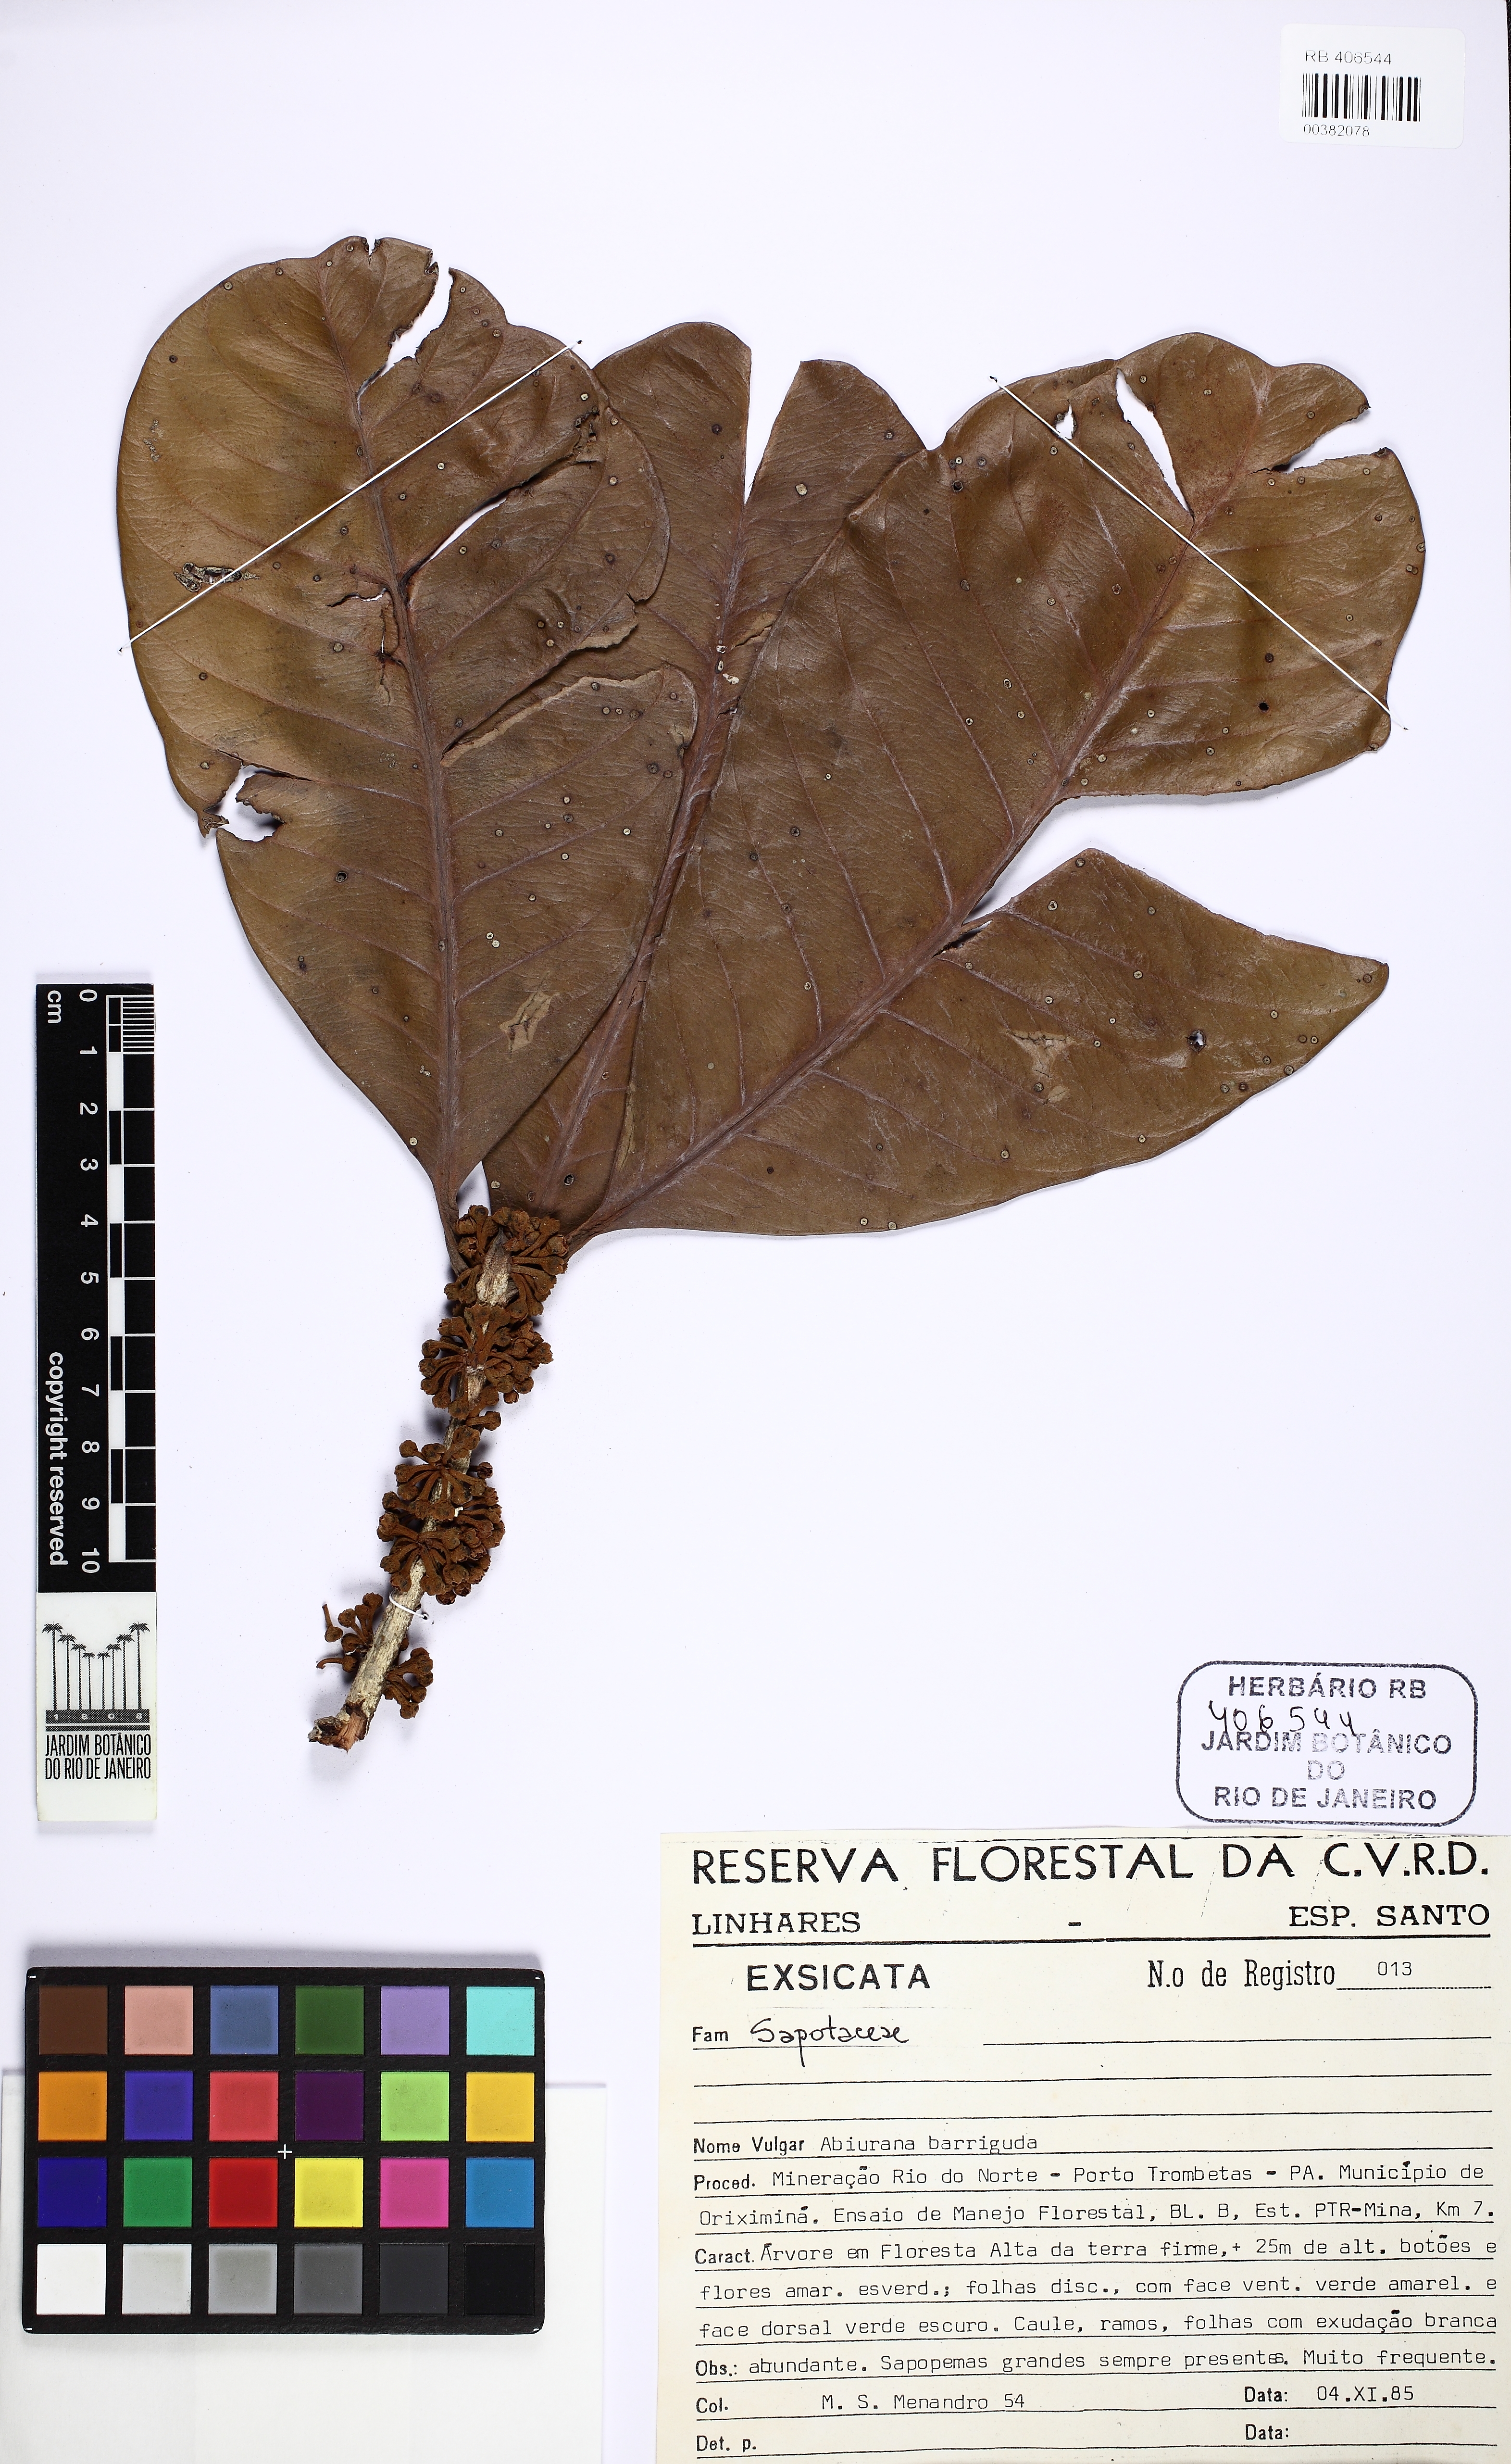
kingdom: Plantae
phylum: Tracheophyta
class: Magnoliopsida
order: Ericales
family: Sapotaceae
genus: Pouteria
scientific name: Pouteria
